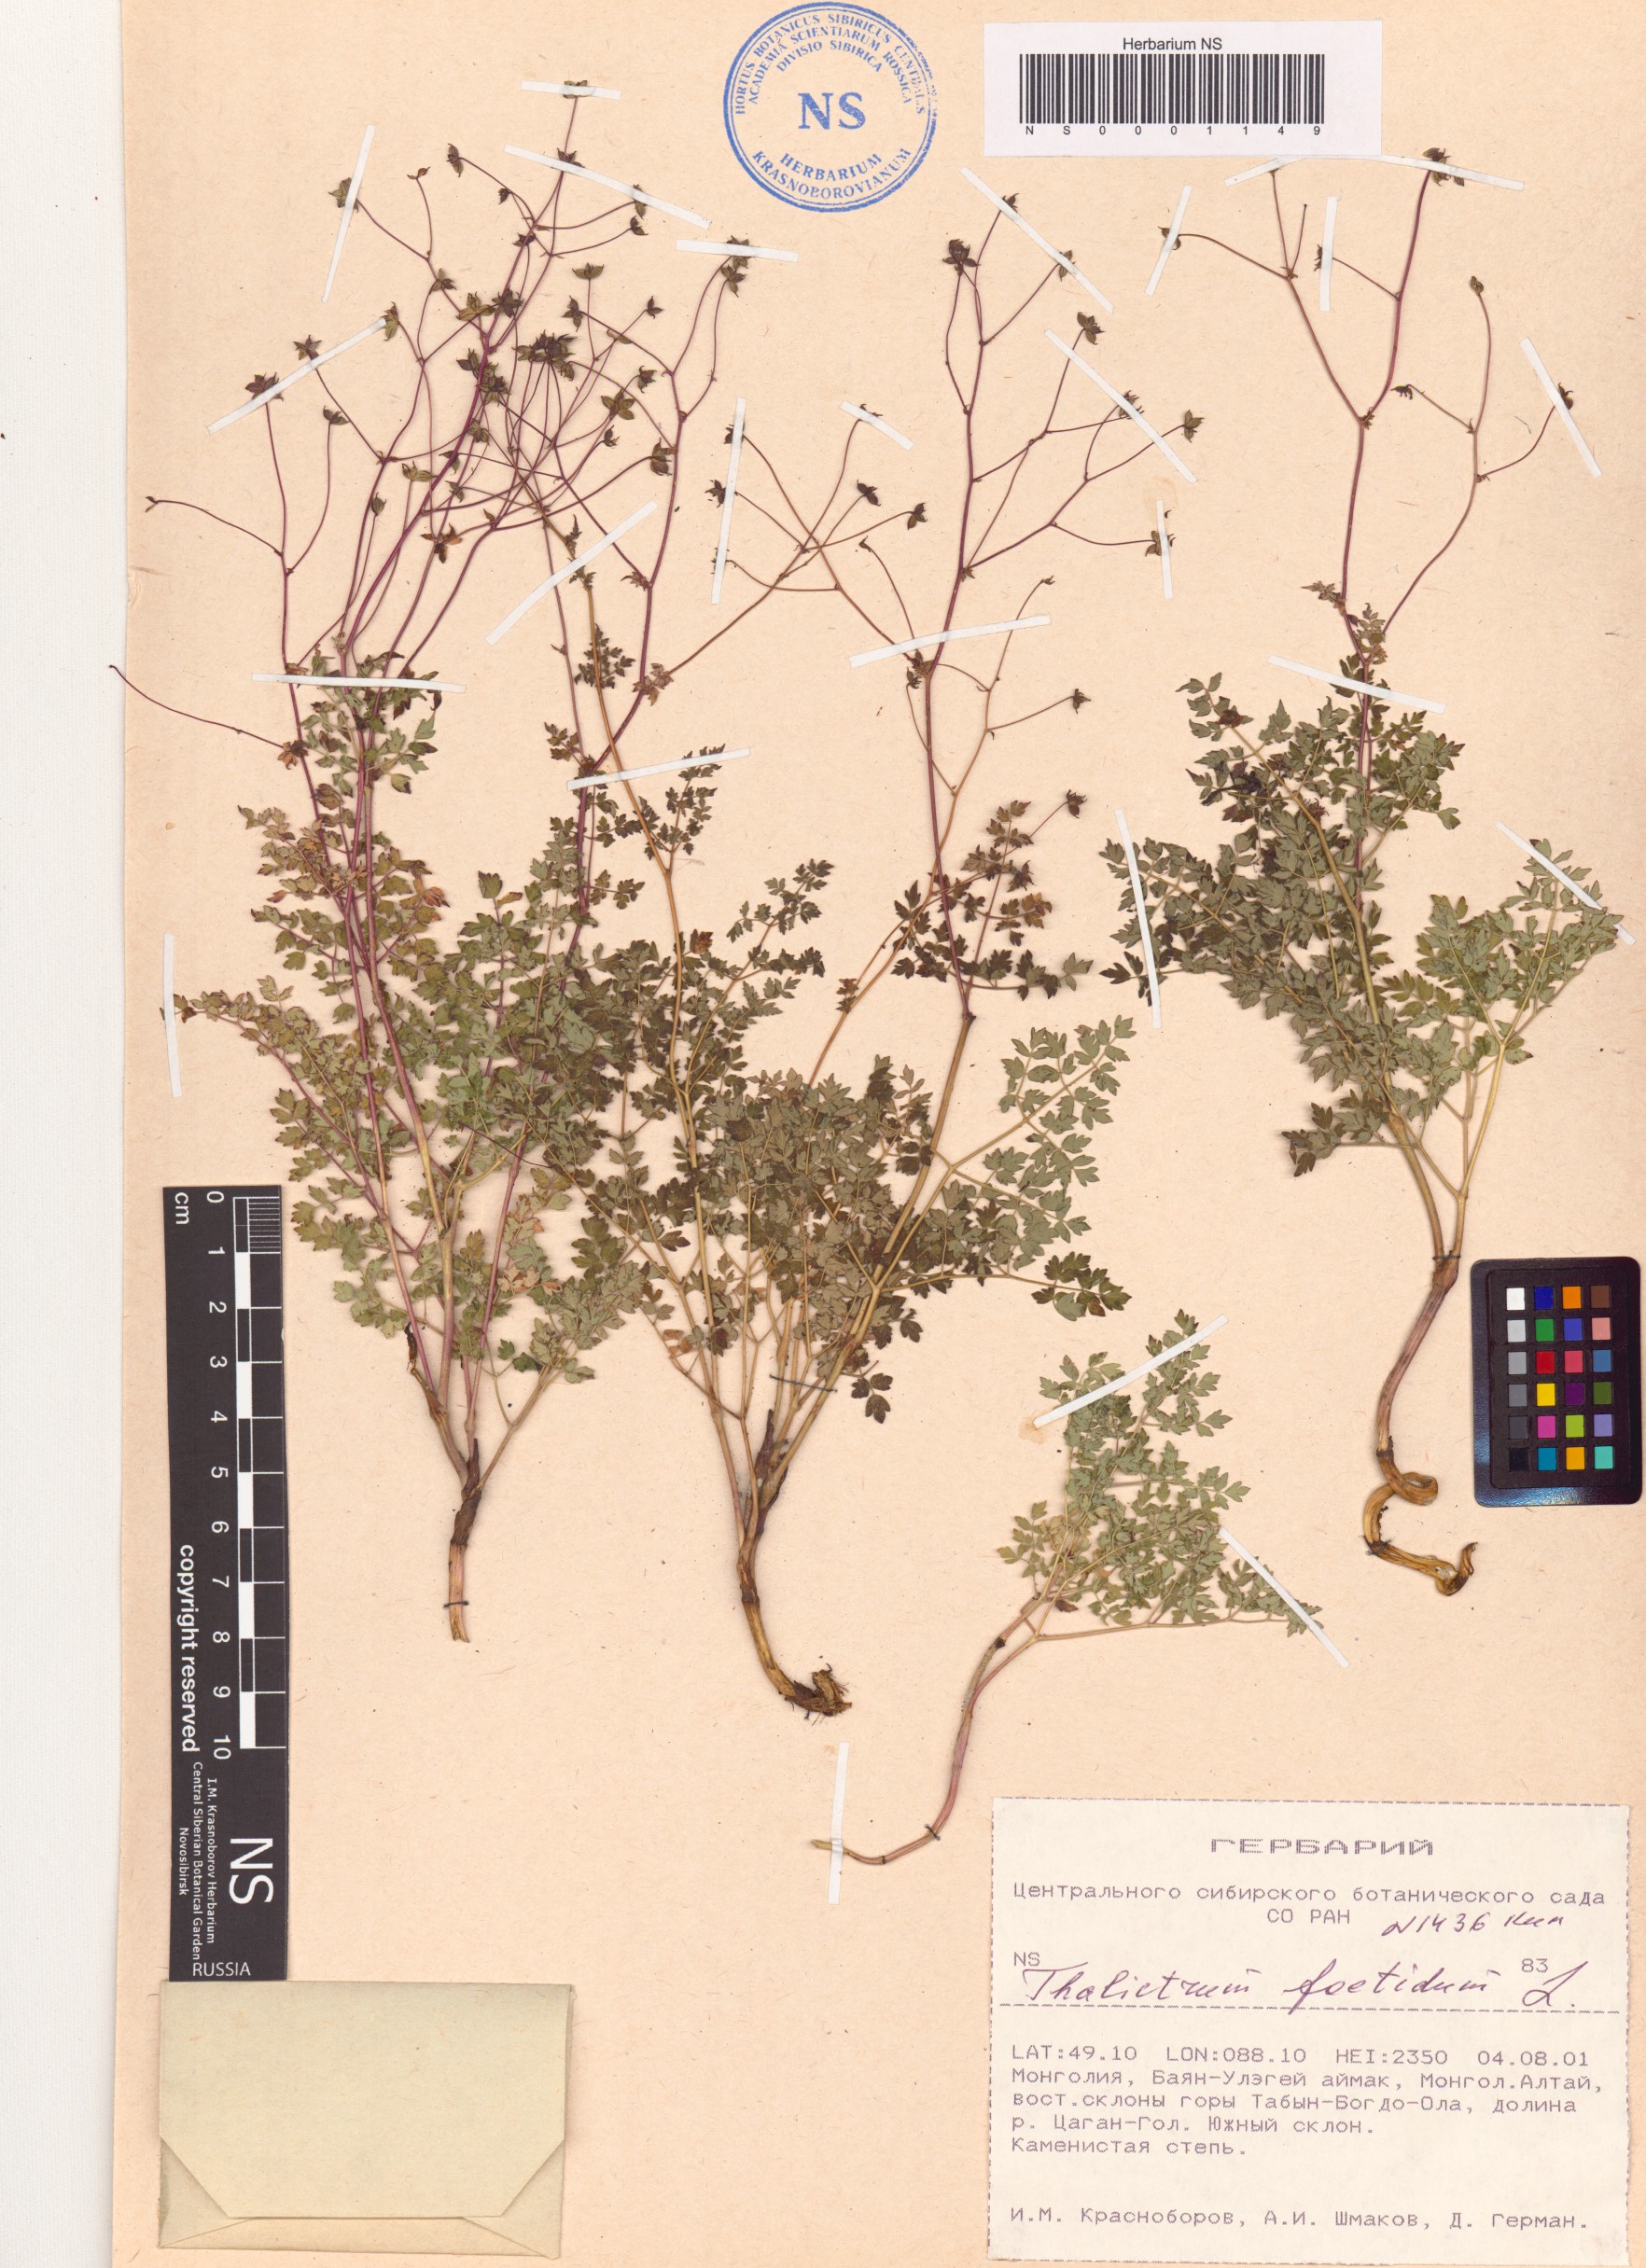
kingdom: Plantae
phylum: Tracheophyta
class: Magnoliopsida
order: Ranunculales
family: Ranunculaceae
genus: Thalictrum
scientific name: Thalictrum foetidum
